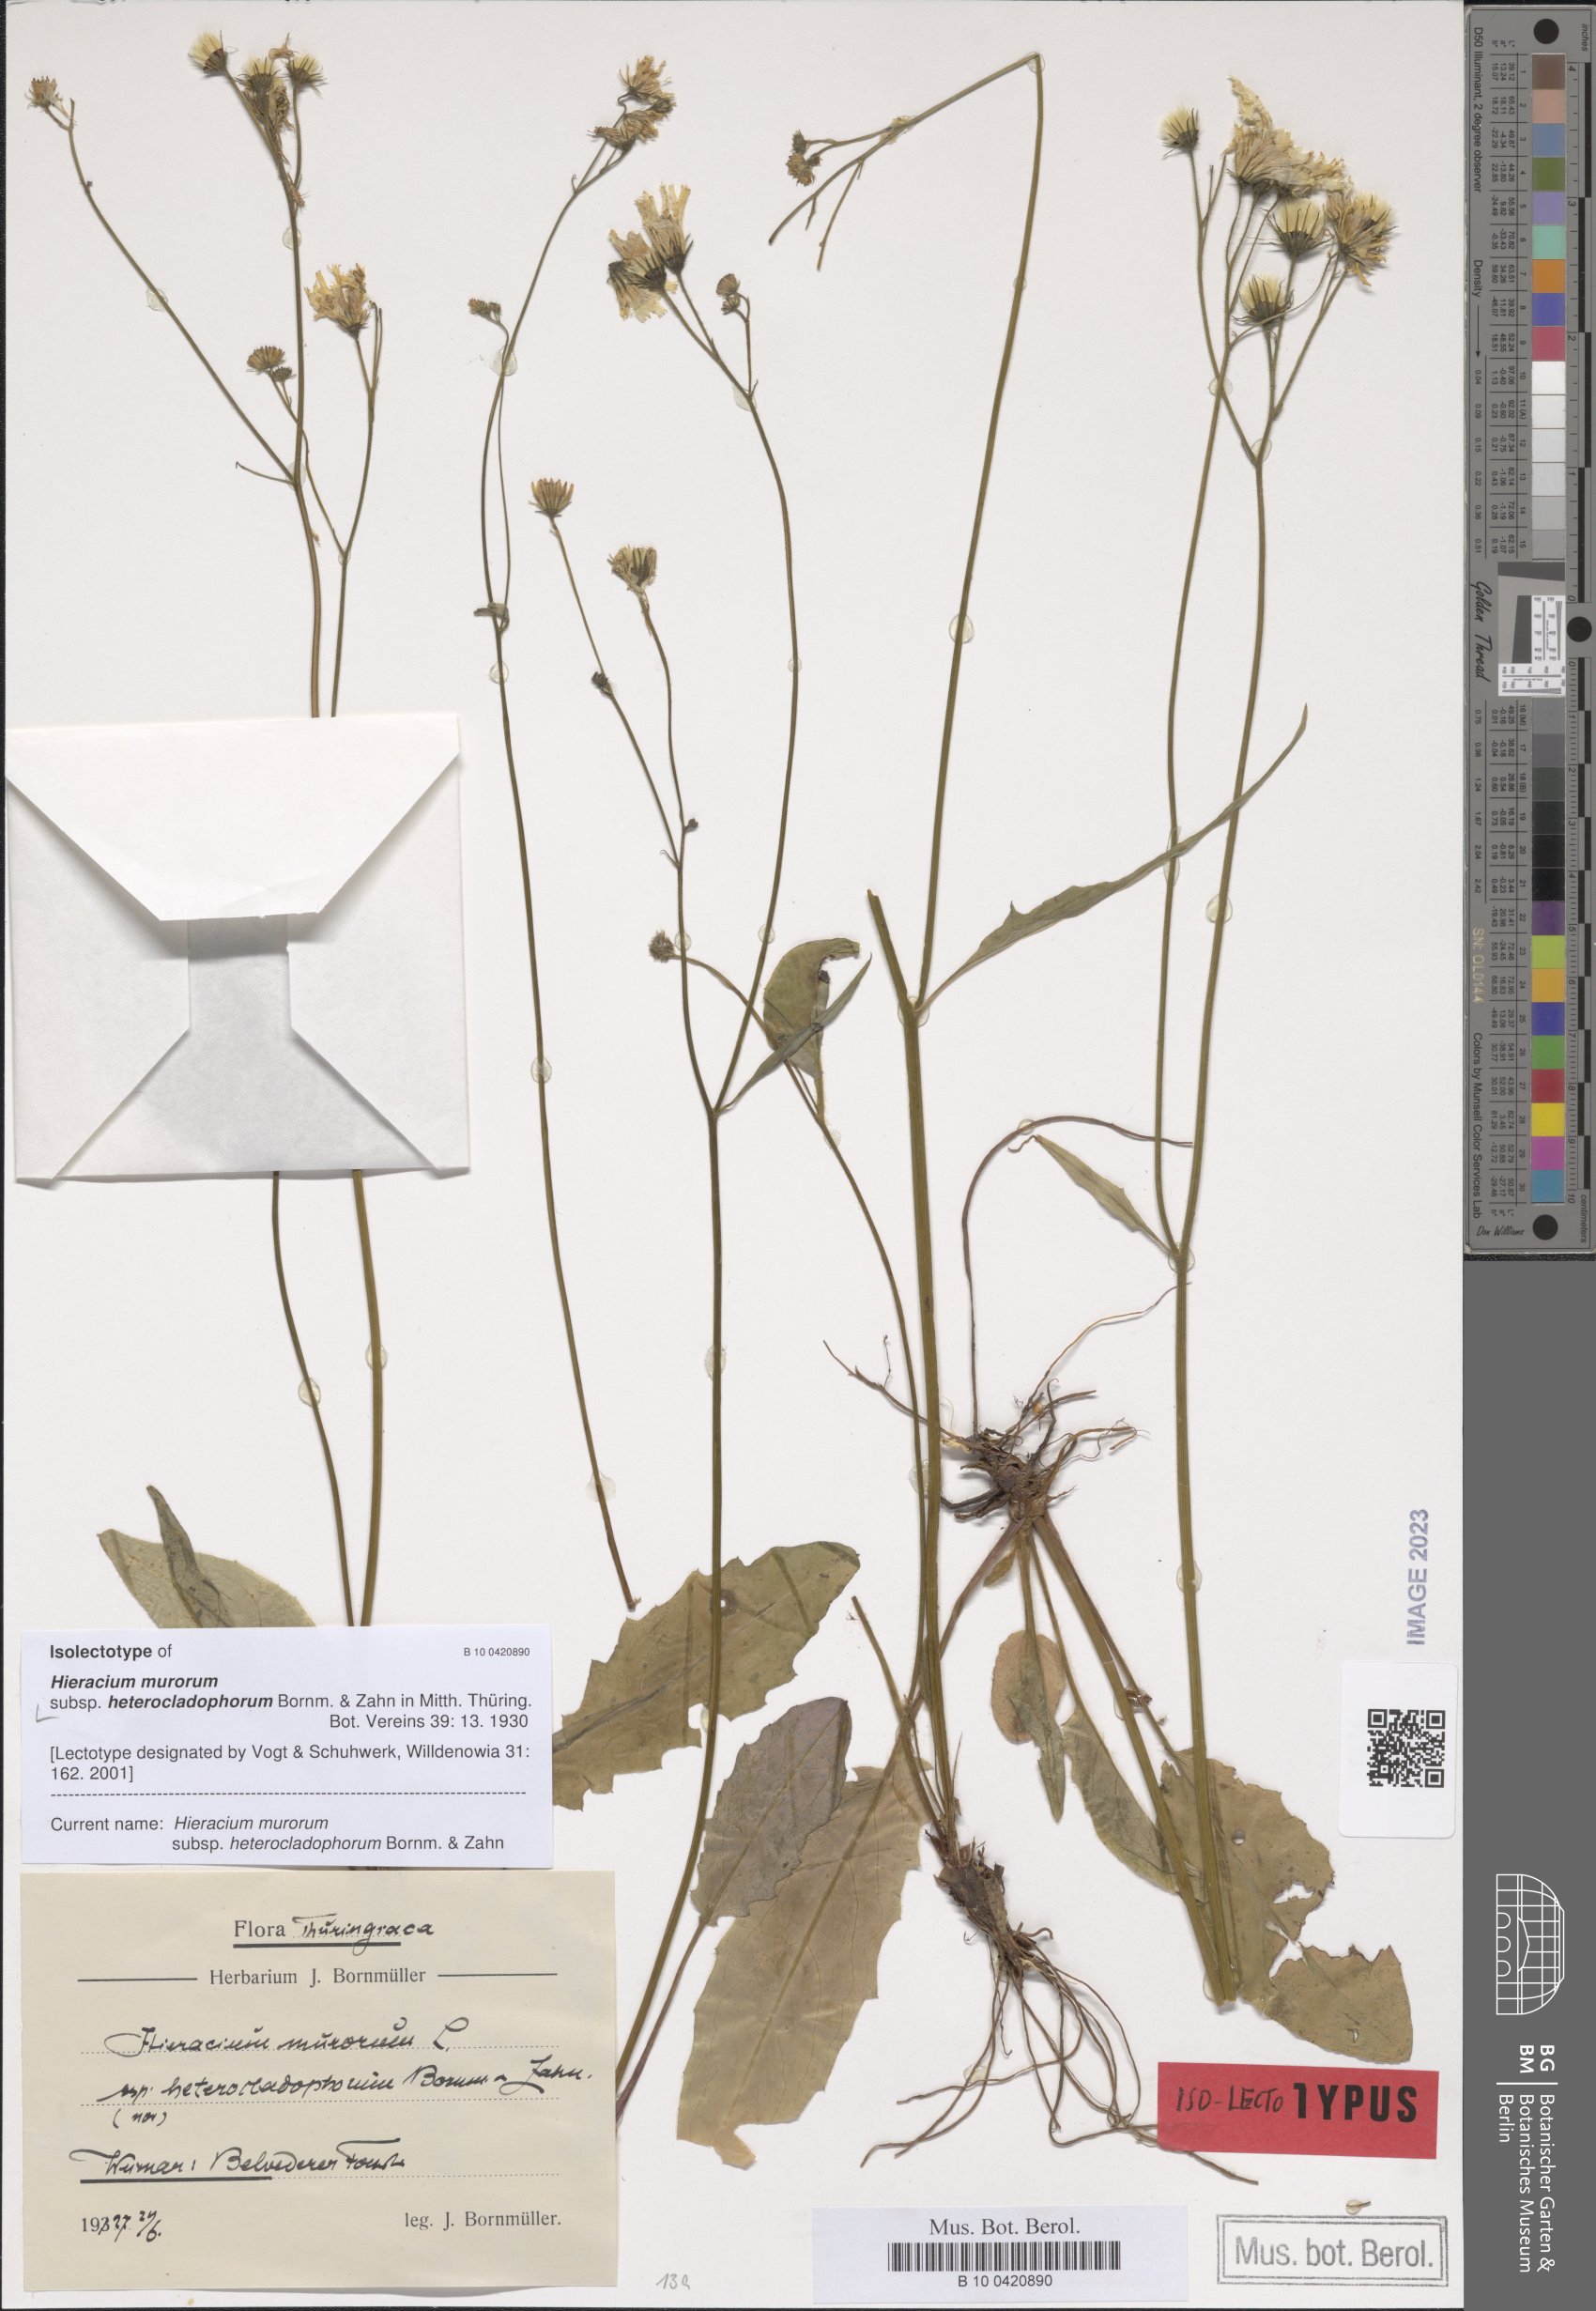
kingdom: Plantae
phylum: Tracheophyta
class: Magnoliopsida
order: Asterales
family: Asteraceae
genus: Hieracium
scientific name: Hieracium murorum
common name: Wall hawkweed
